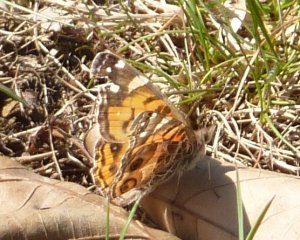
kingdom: Animalia
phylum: Arthropoda
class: Insecta
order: Lepidoptera
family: Nymphalidae
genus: Vanessa
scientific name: Vanessa virginiensis
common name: American Lady
